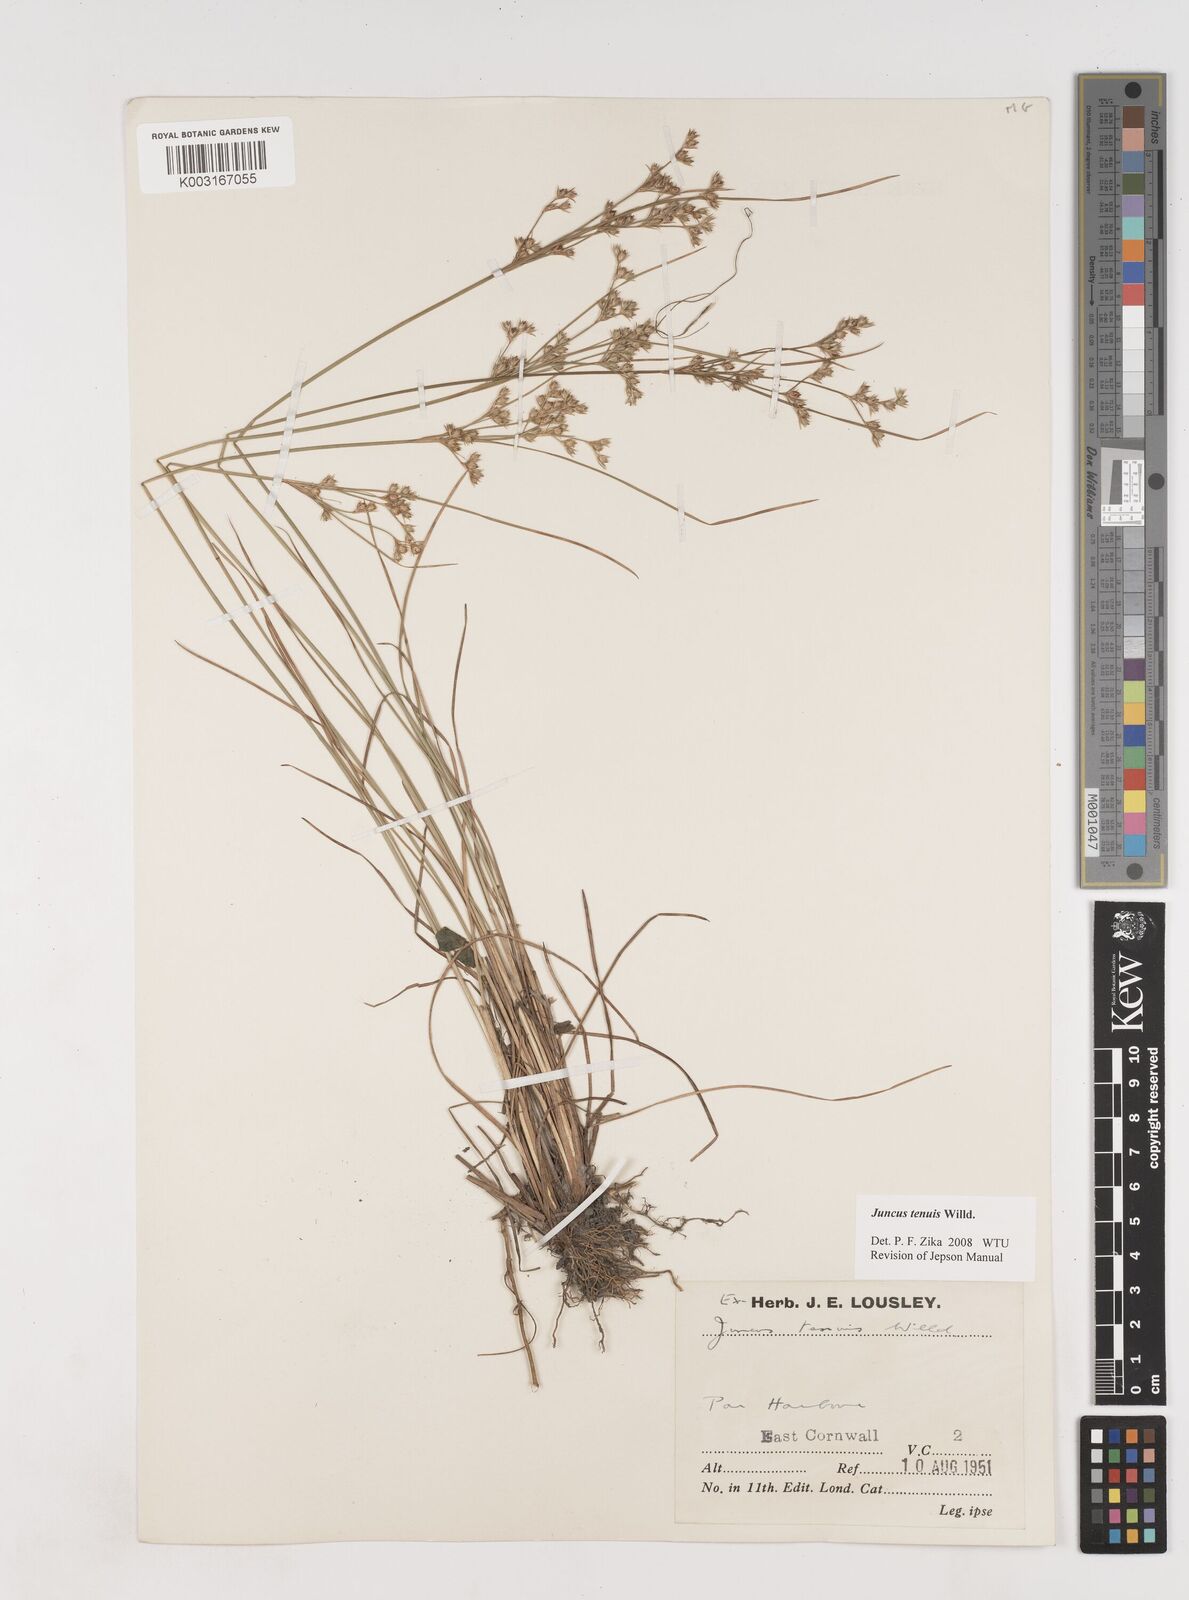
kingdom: Plantae
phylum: Tracheophyta
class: Liliopsida
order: Poales
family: Juncaceae
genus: Juncus
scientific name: Juncus tenuis
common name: Slender rush
